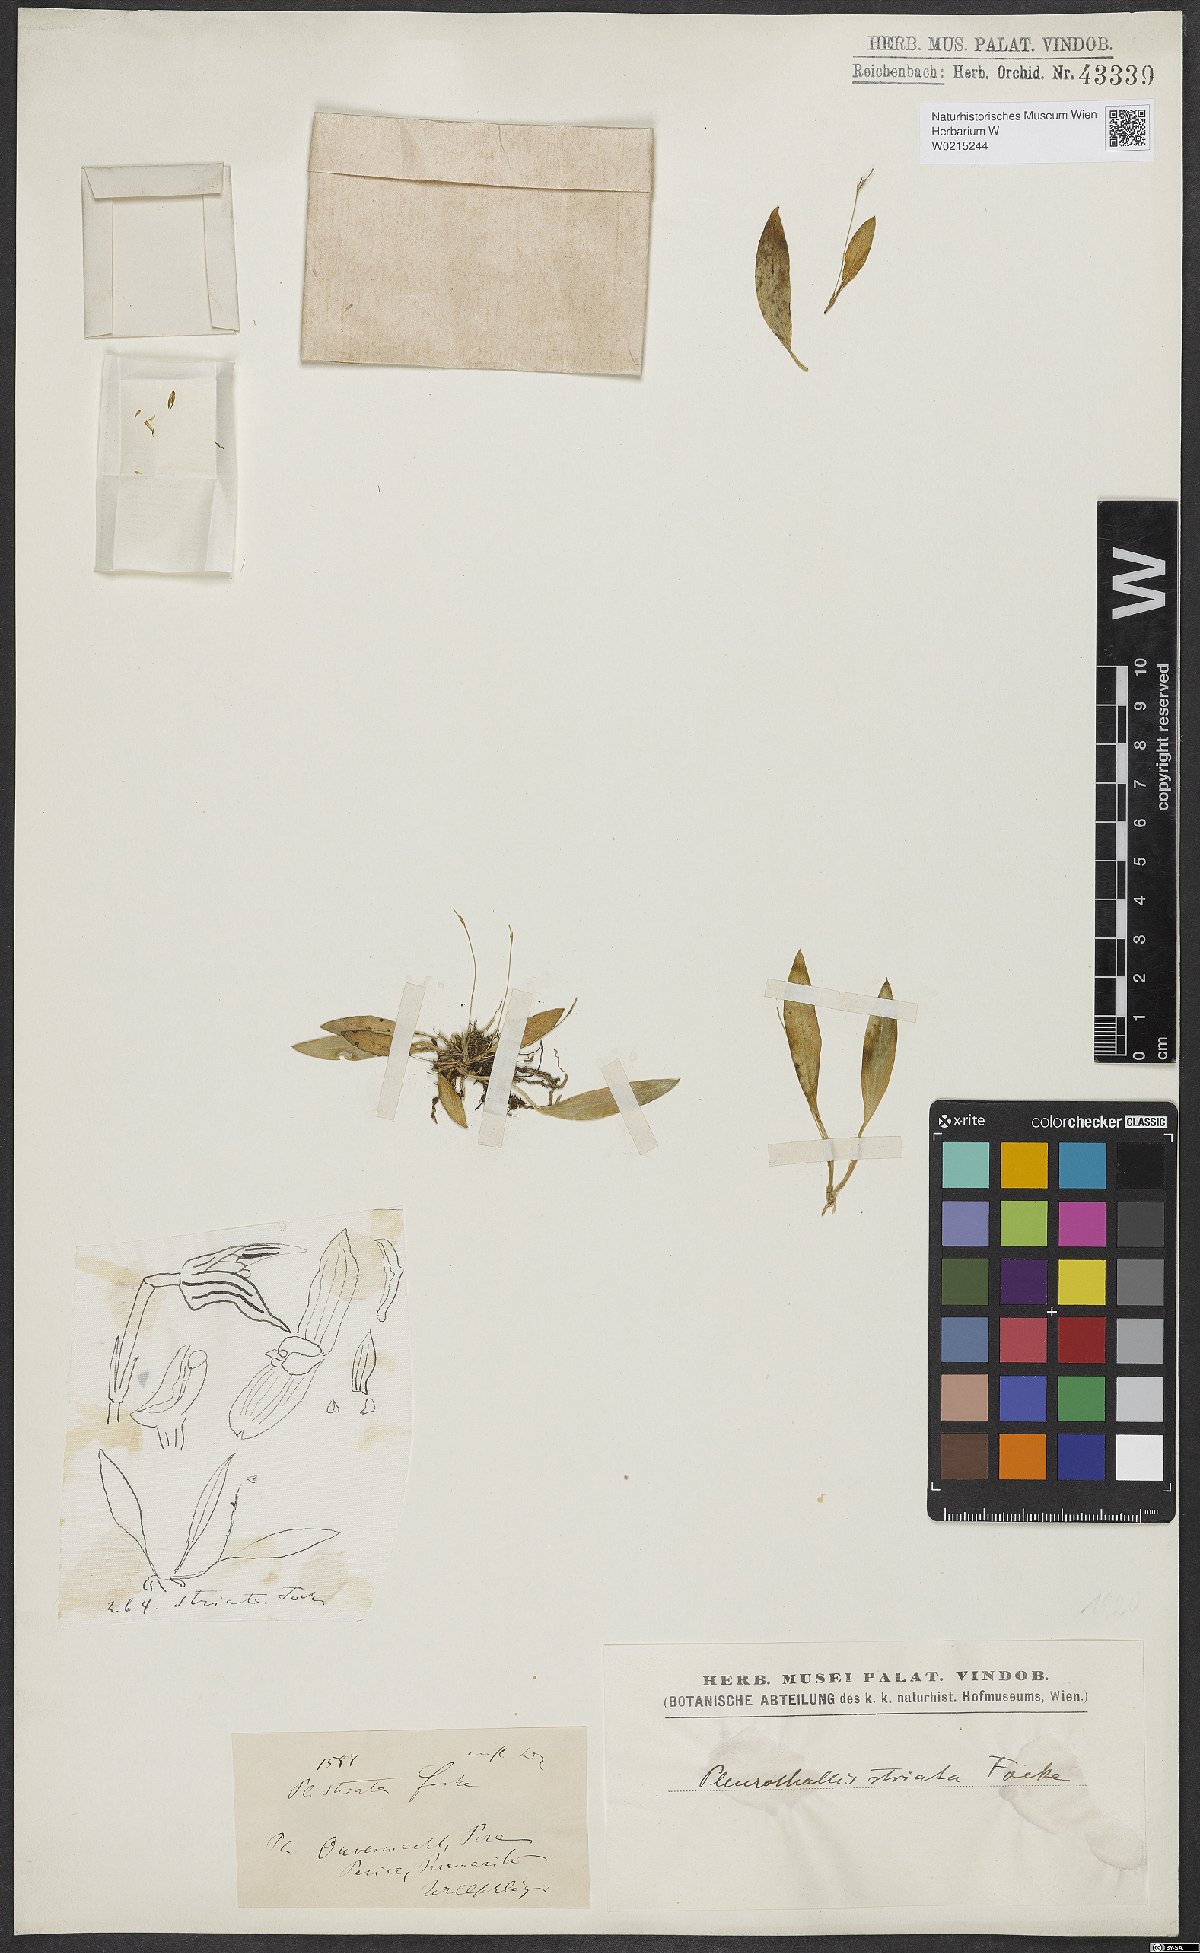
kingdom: Plantae
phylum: Tracheophyta
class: Liliopsida
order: Asparagales
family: Orchidaceae
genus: Specklinia
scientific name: Specklinia striata
